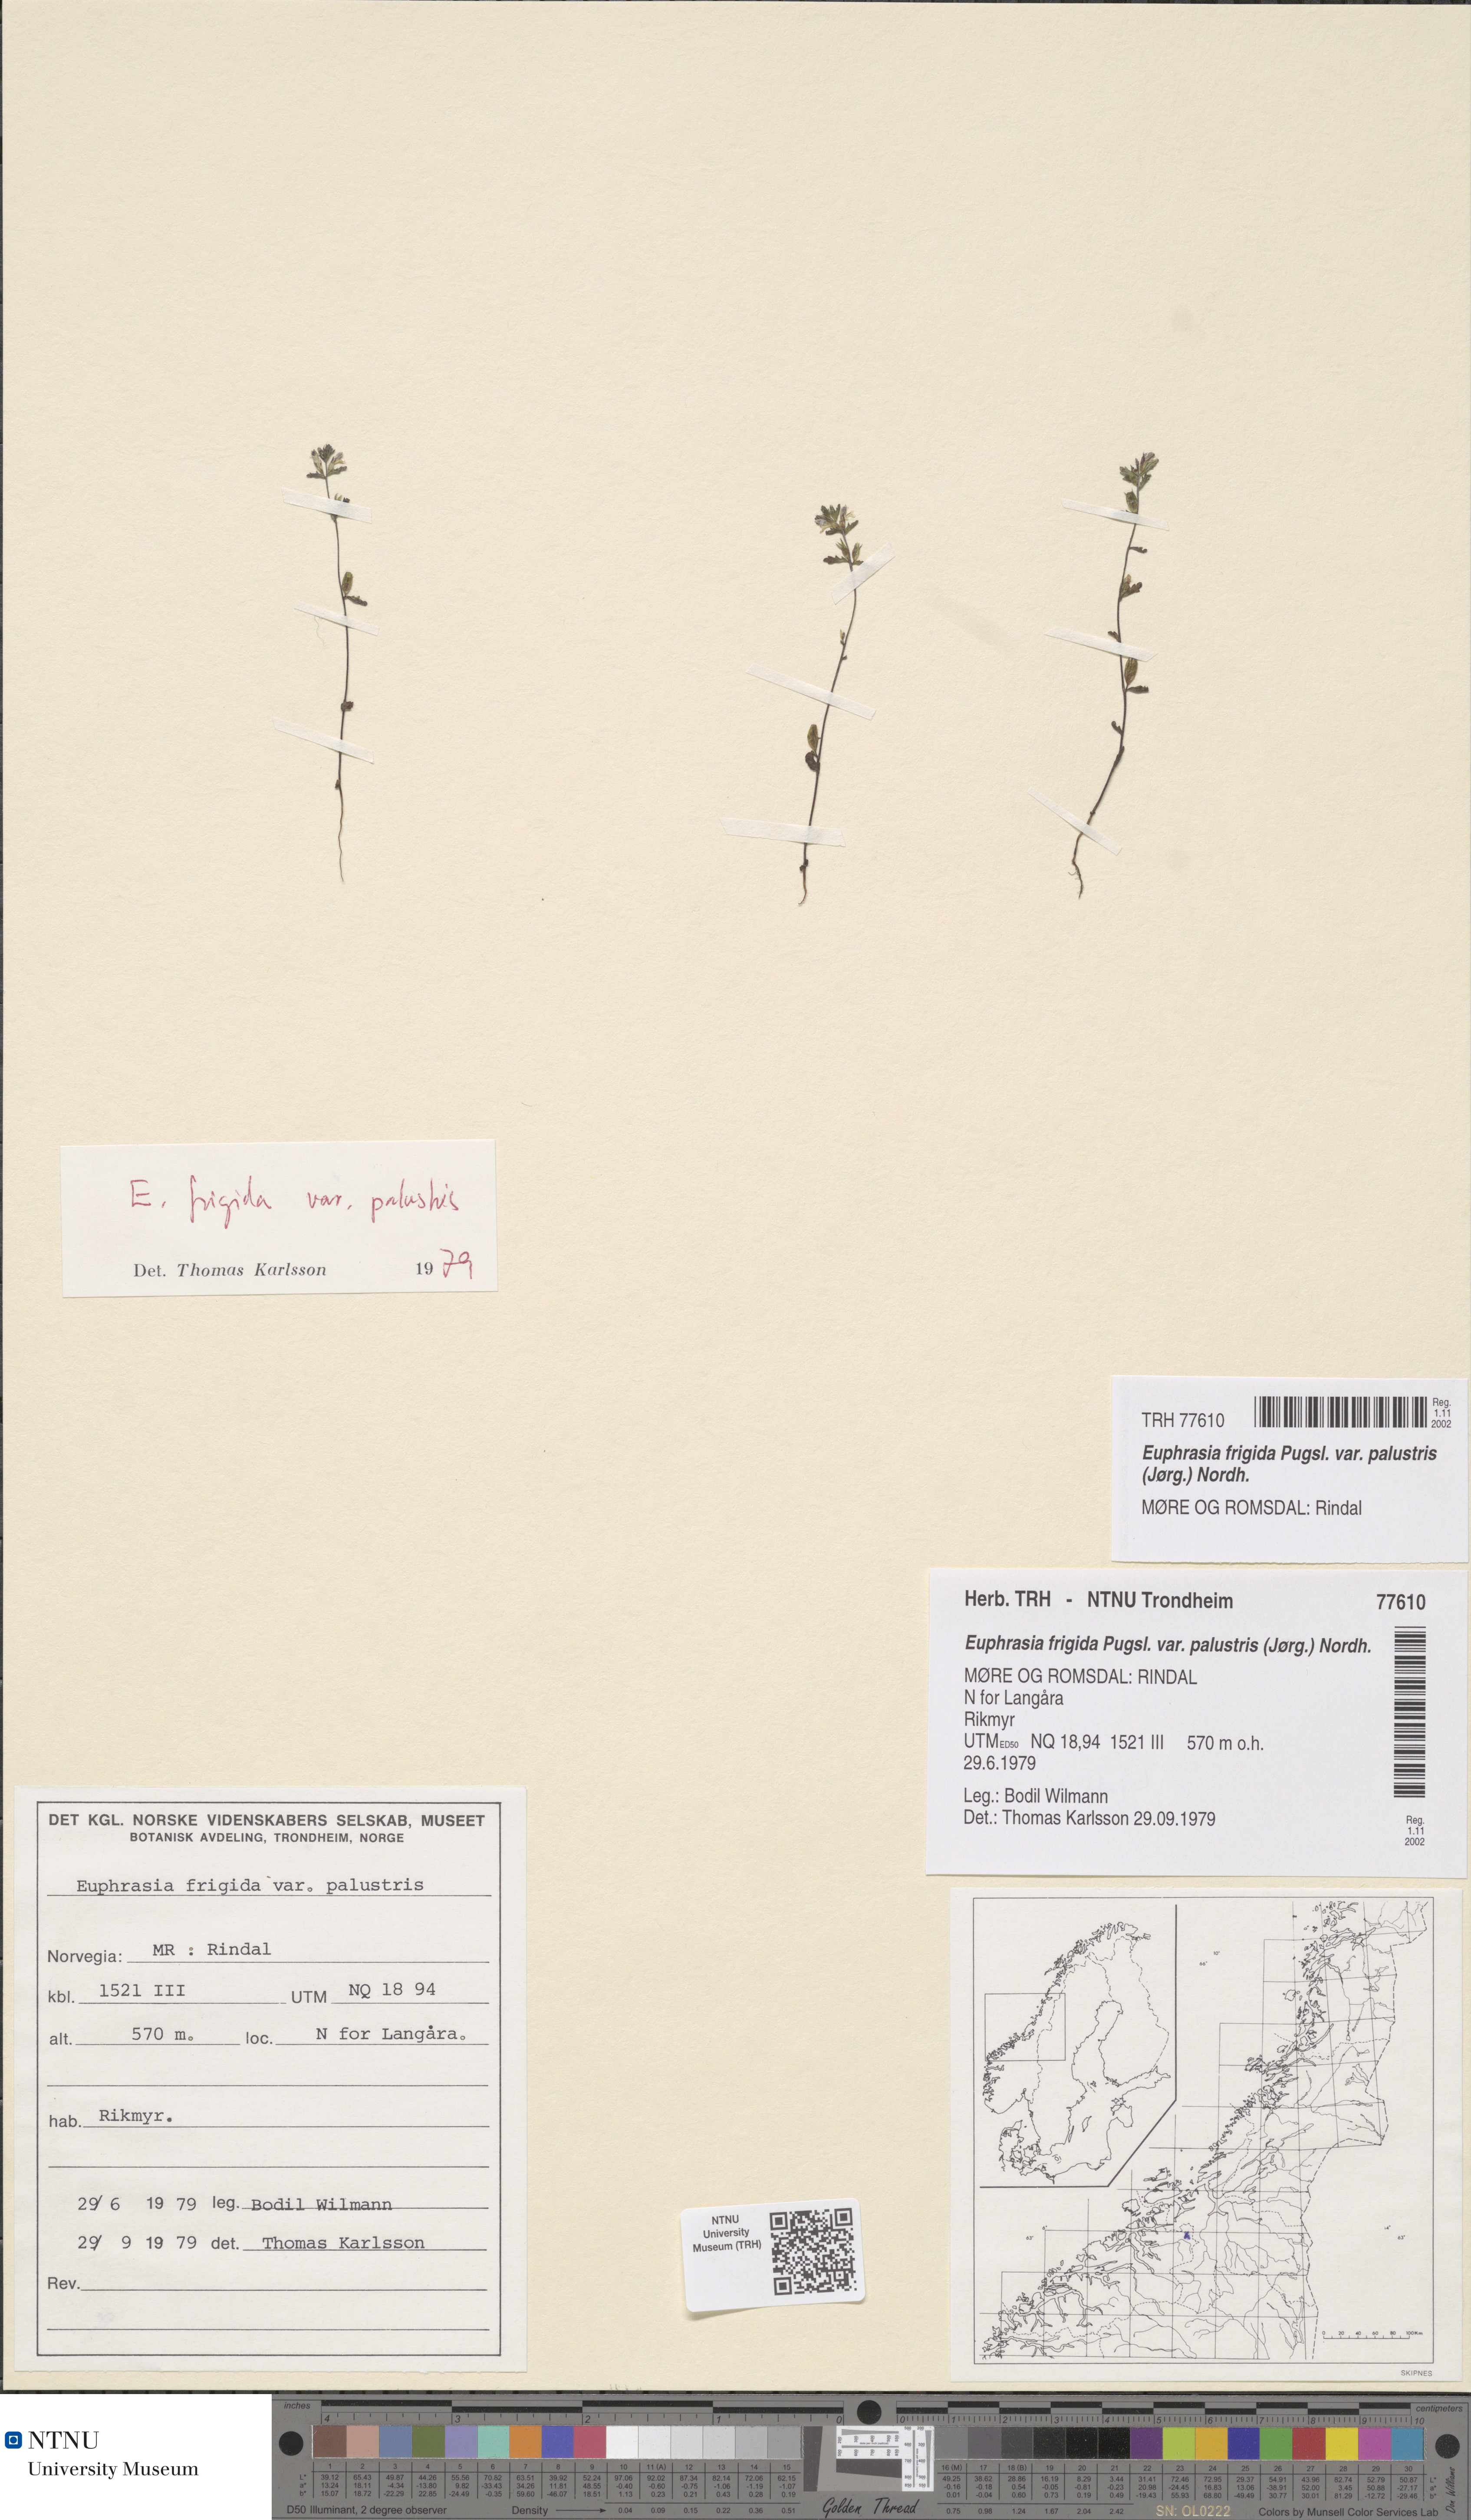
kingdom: Plantae
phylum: Tracheophyta
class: Magnoliopsida
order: Lamiales
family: Orobanchaceae
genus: Euphrasia
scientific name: Euphrasia wettsteinii
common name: Wettstein's eyebright
